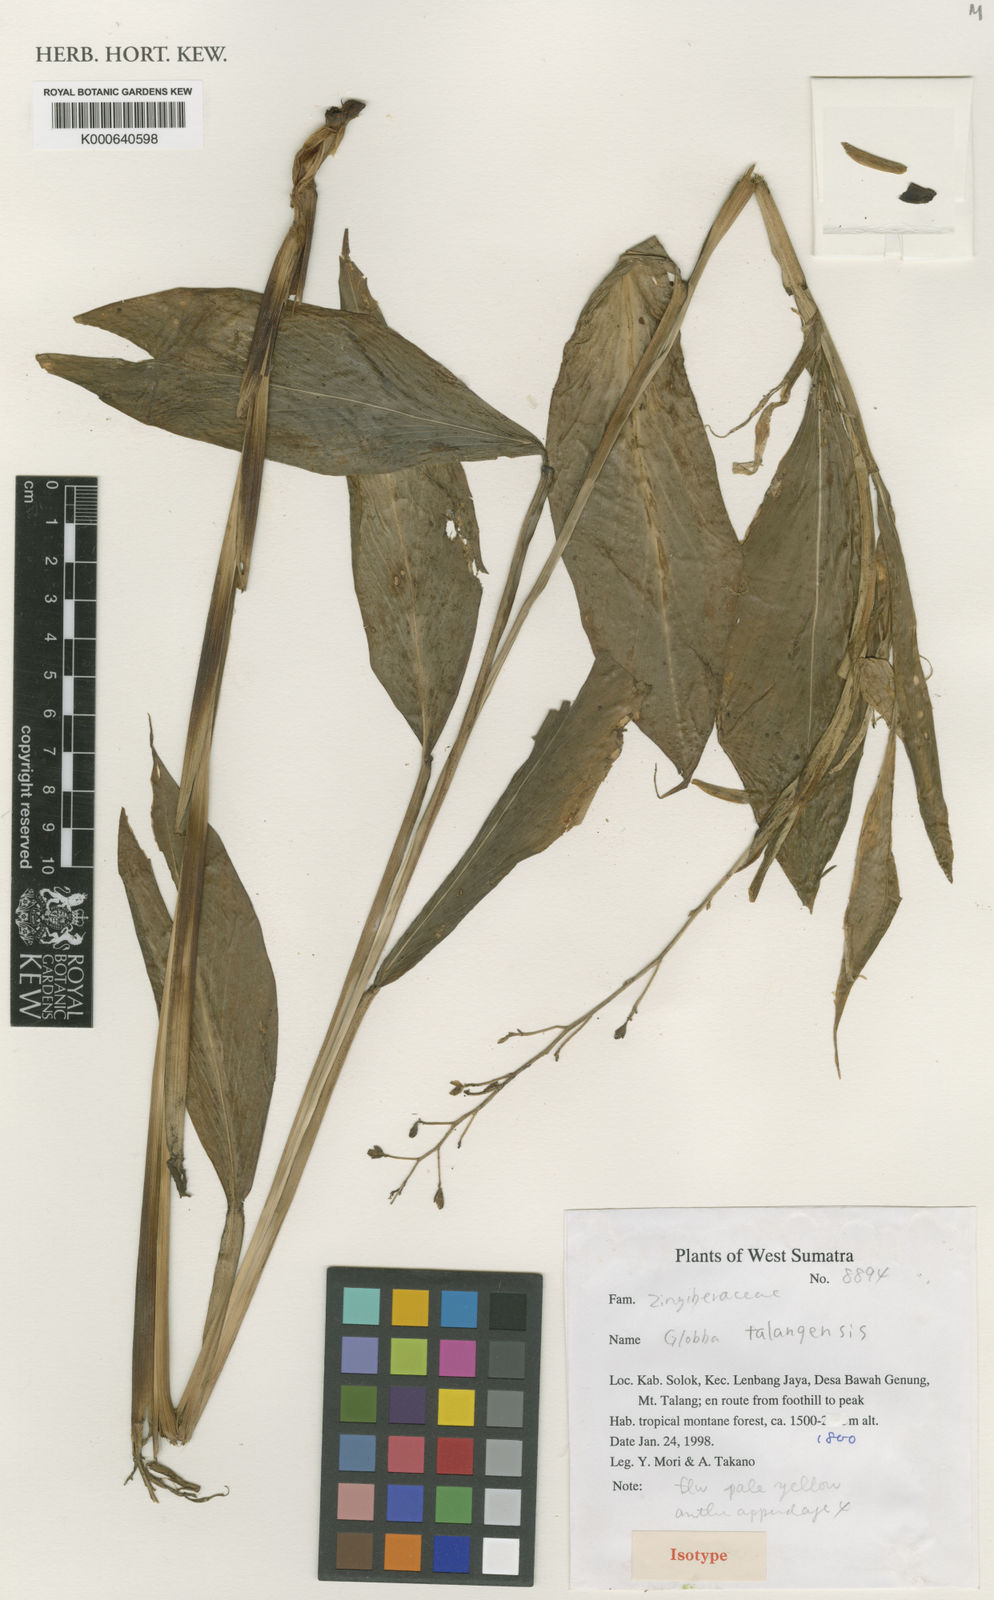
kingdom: Plantae
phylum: Tracheophyta
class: Liliopsida
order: Zingiberales
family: Zingiberaceae
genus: Globba
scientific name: Globba talangensis
